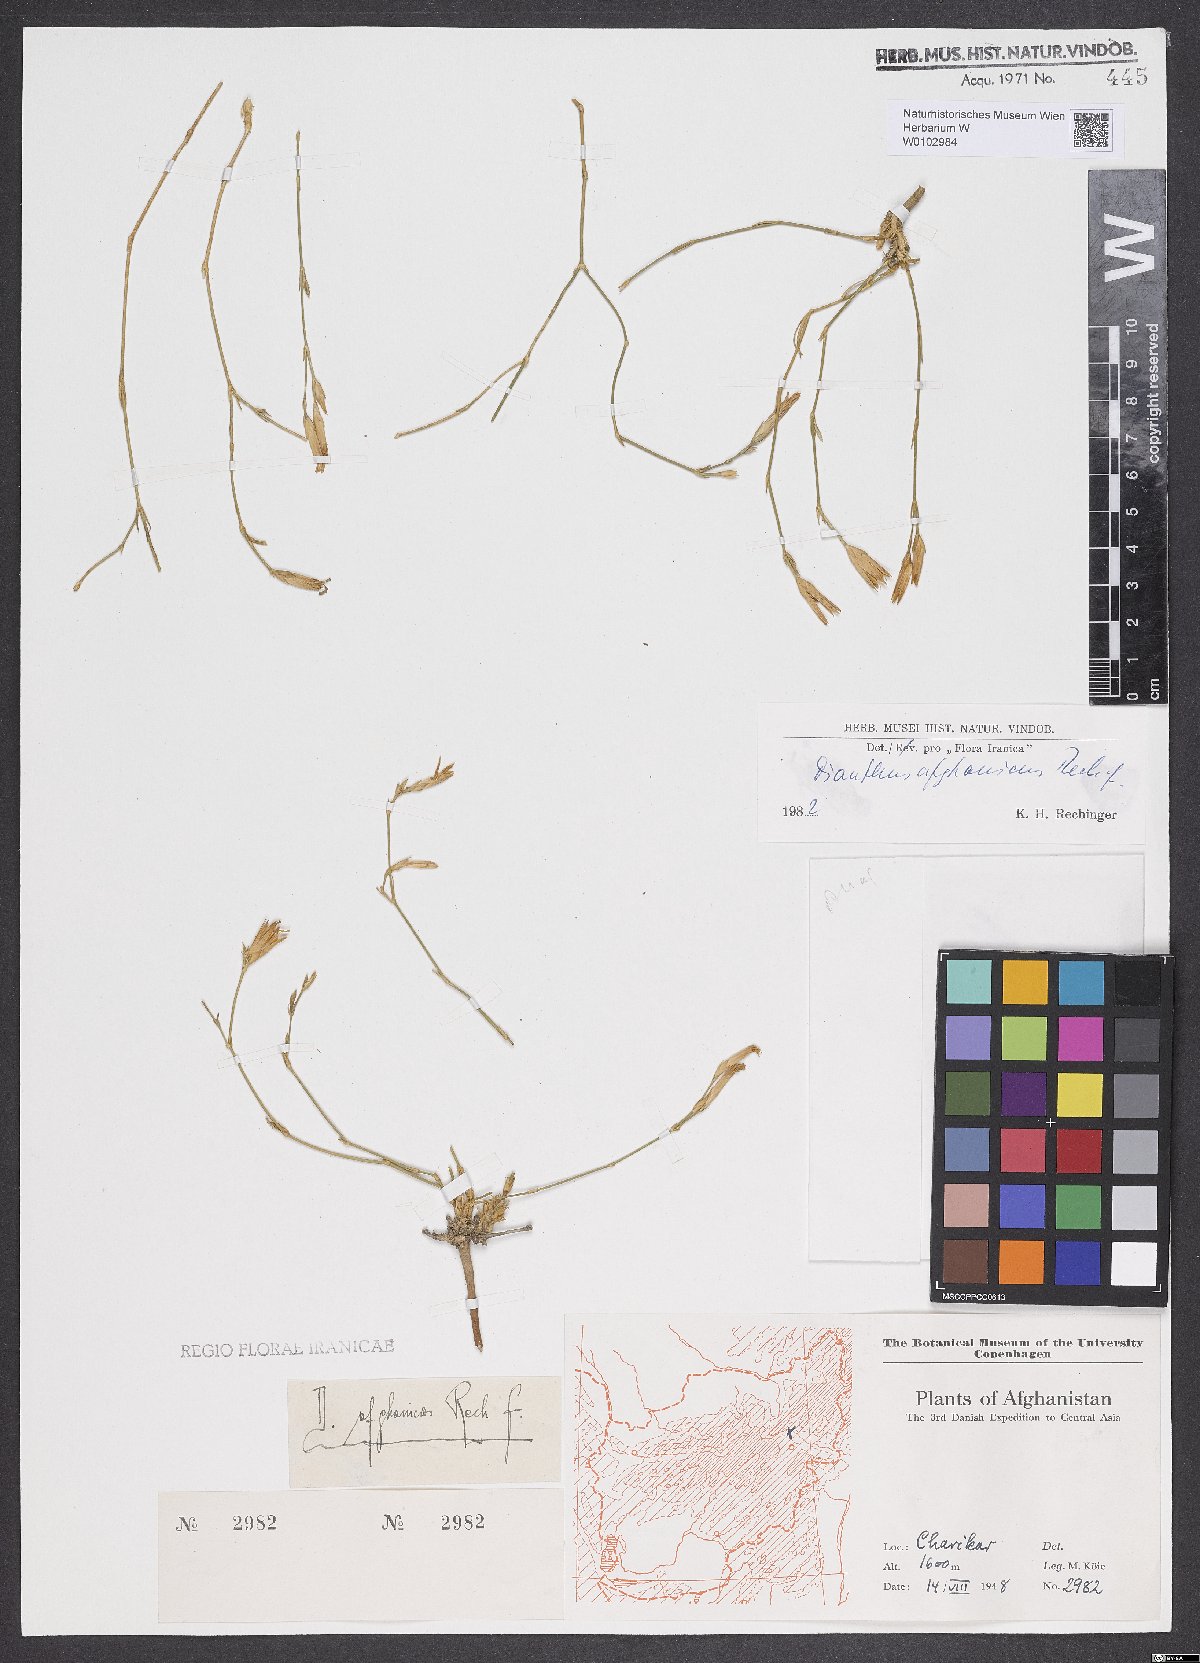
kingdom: Plantae
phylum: Tracheophyta
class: Magnoliopsida
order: Caryophyllales
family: Caryophyllaceae
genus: Dianthus
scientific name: Dianthus afghanicus
